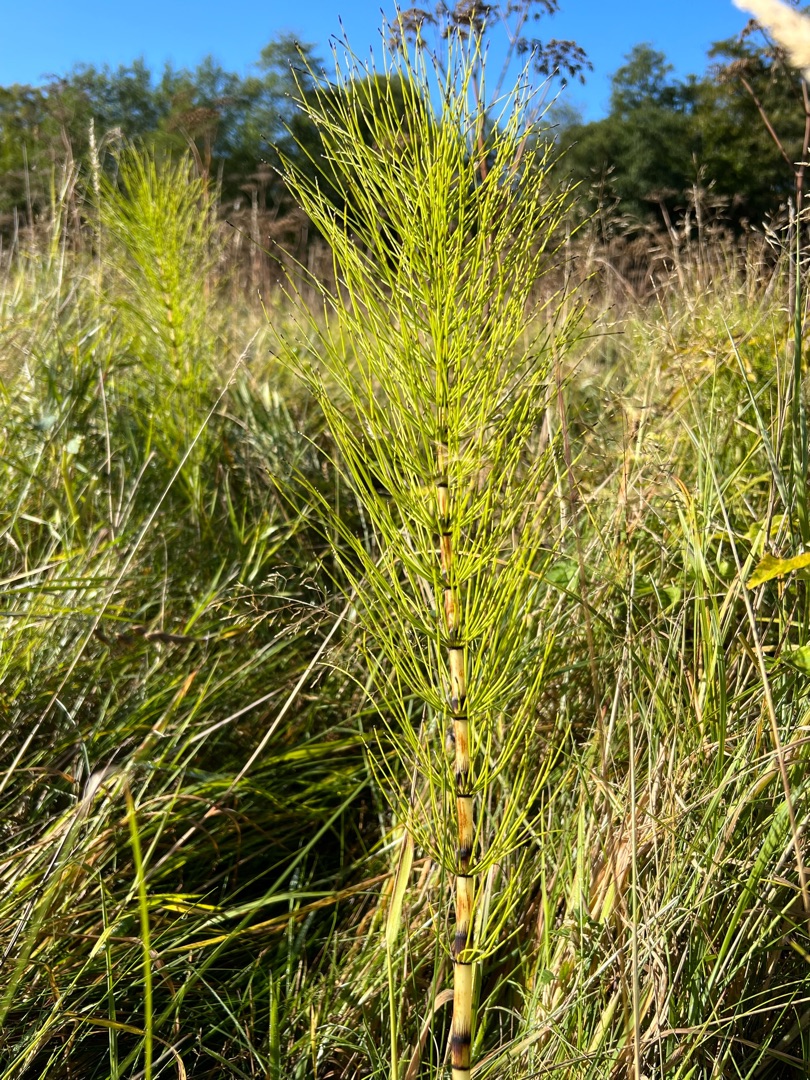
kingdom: Plantae
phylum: Tracheophyta
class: Polypodiopsida
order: Equisetales
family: Equisetaceae
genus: Equisetum
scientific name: Equisetum telmateia
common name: Elfenbens-padderok
